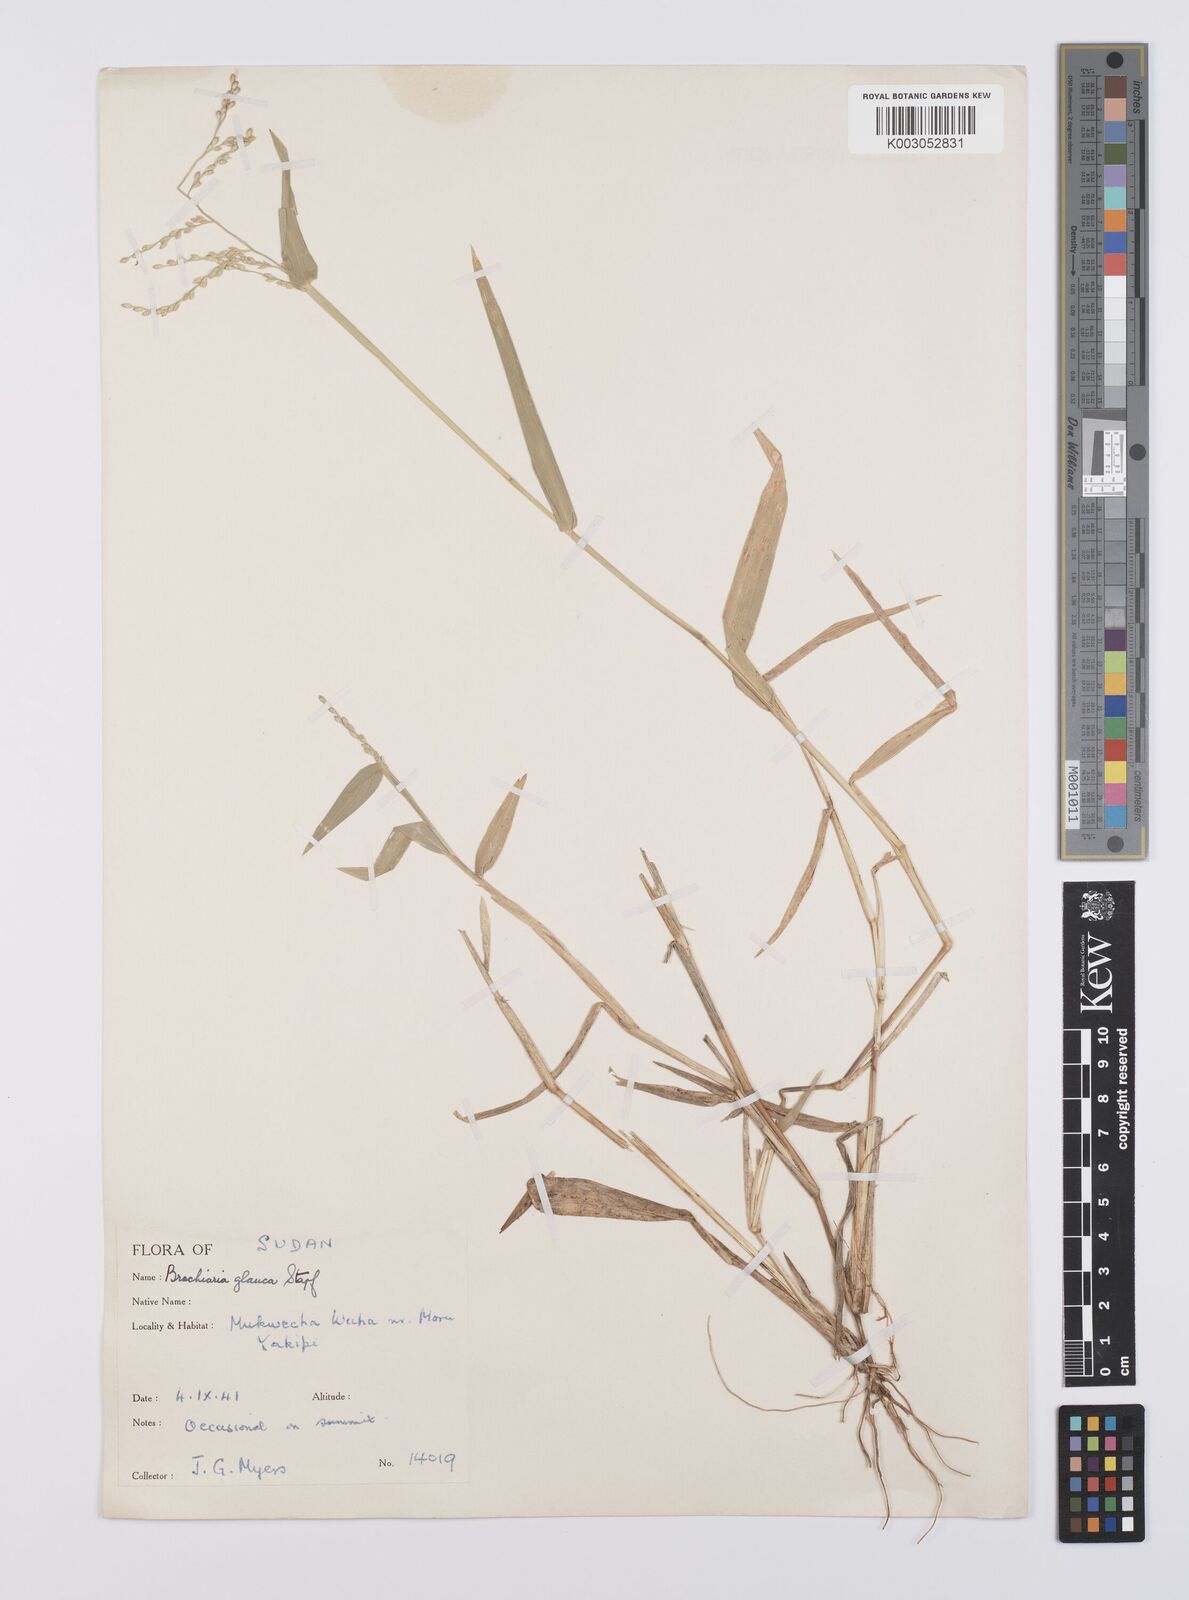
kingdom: Plantae
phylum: Tracheophyta
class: Liliopsida
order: Poales
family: Poaceae
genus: Urochloa
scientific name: Urochloa ovalis
